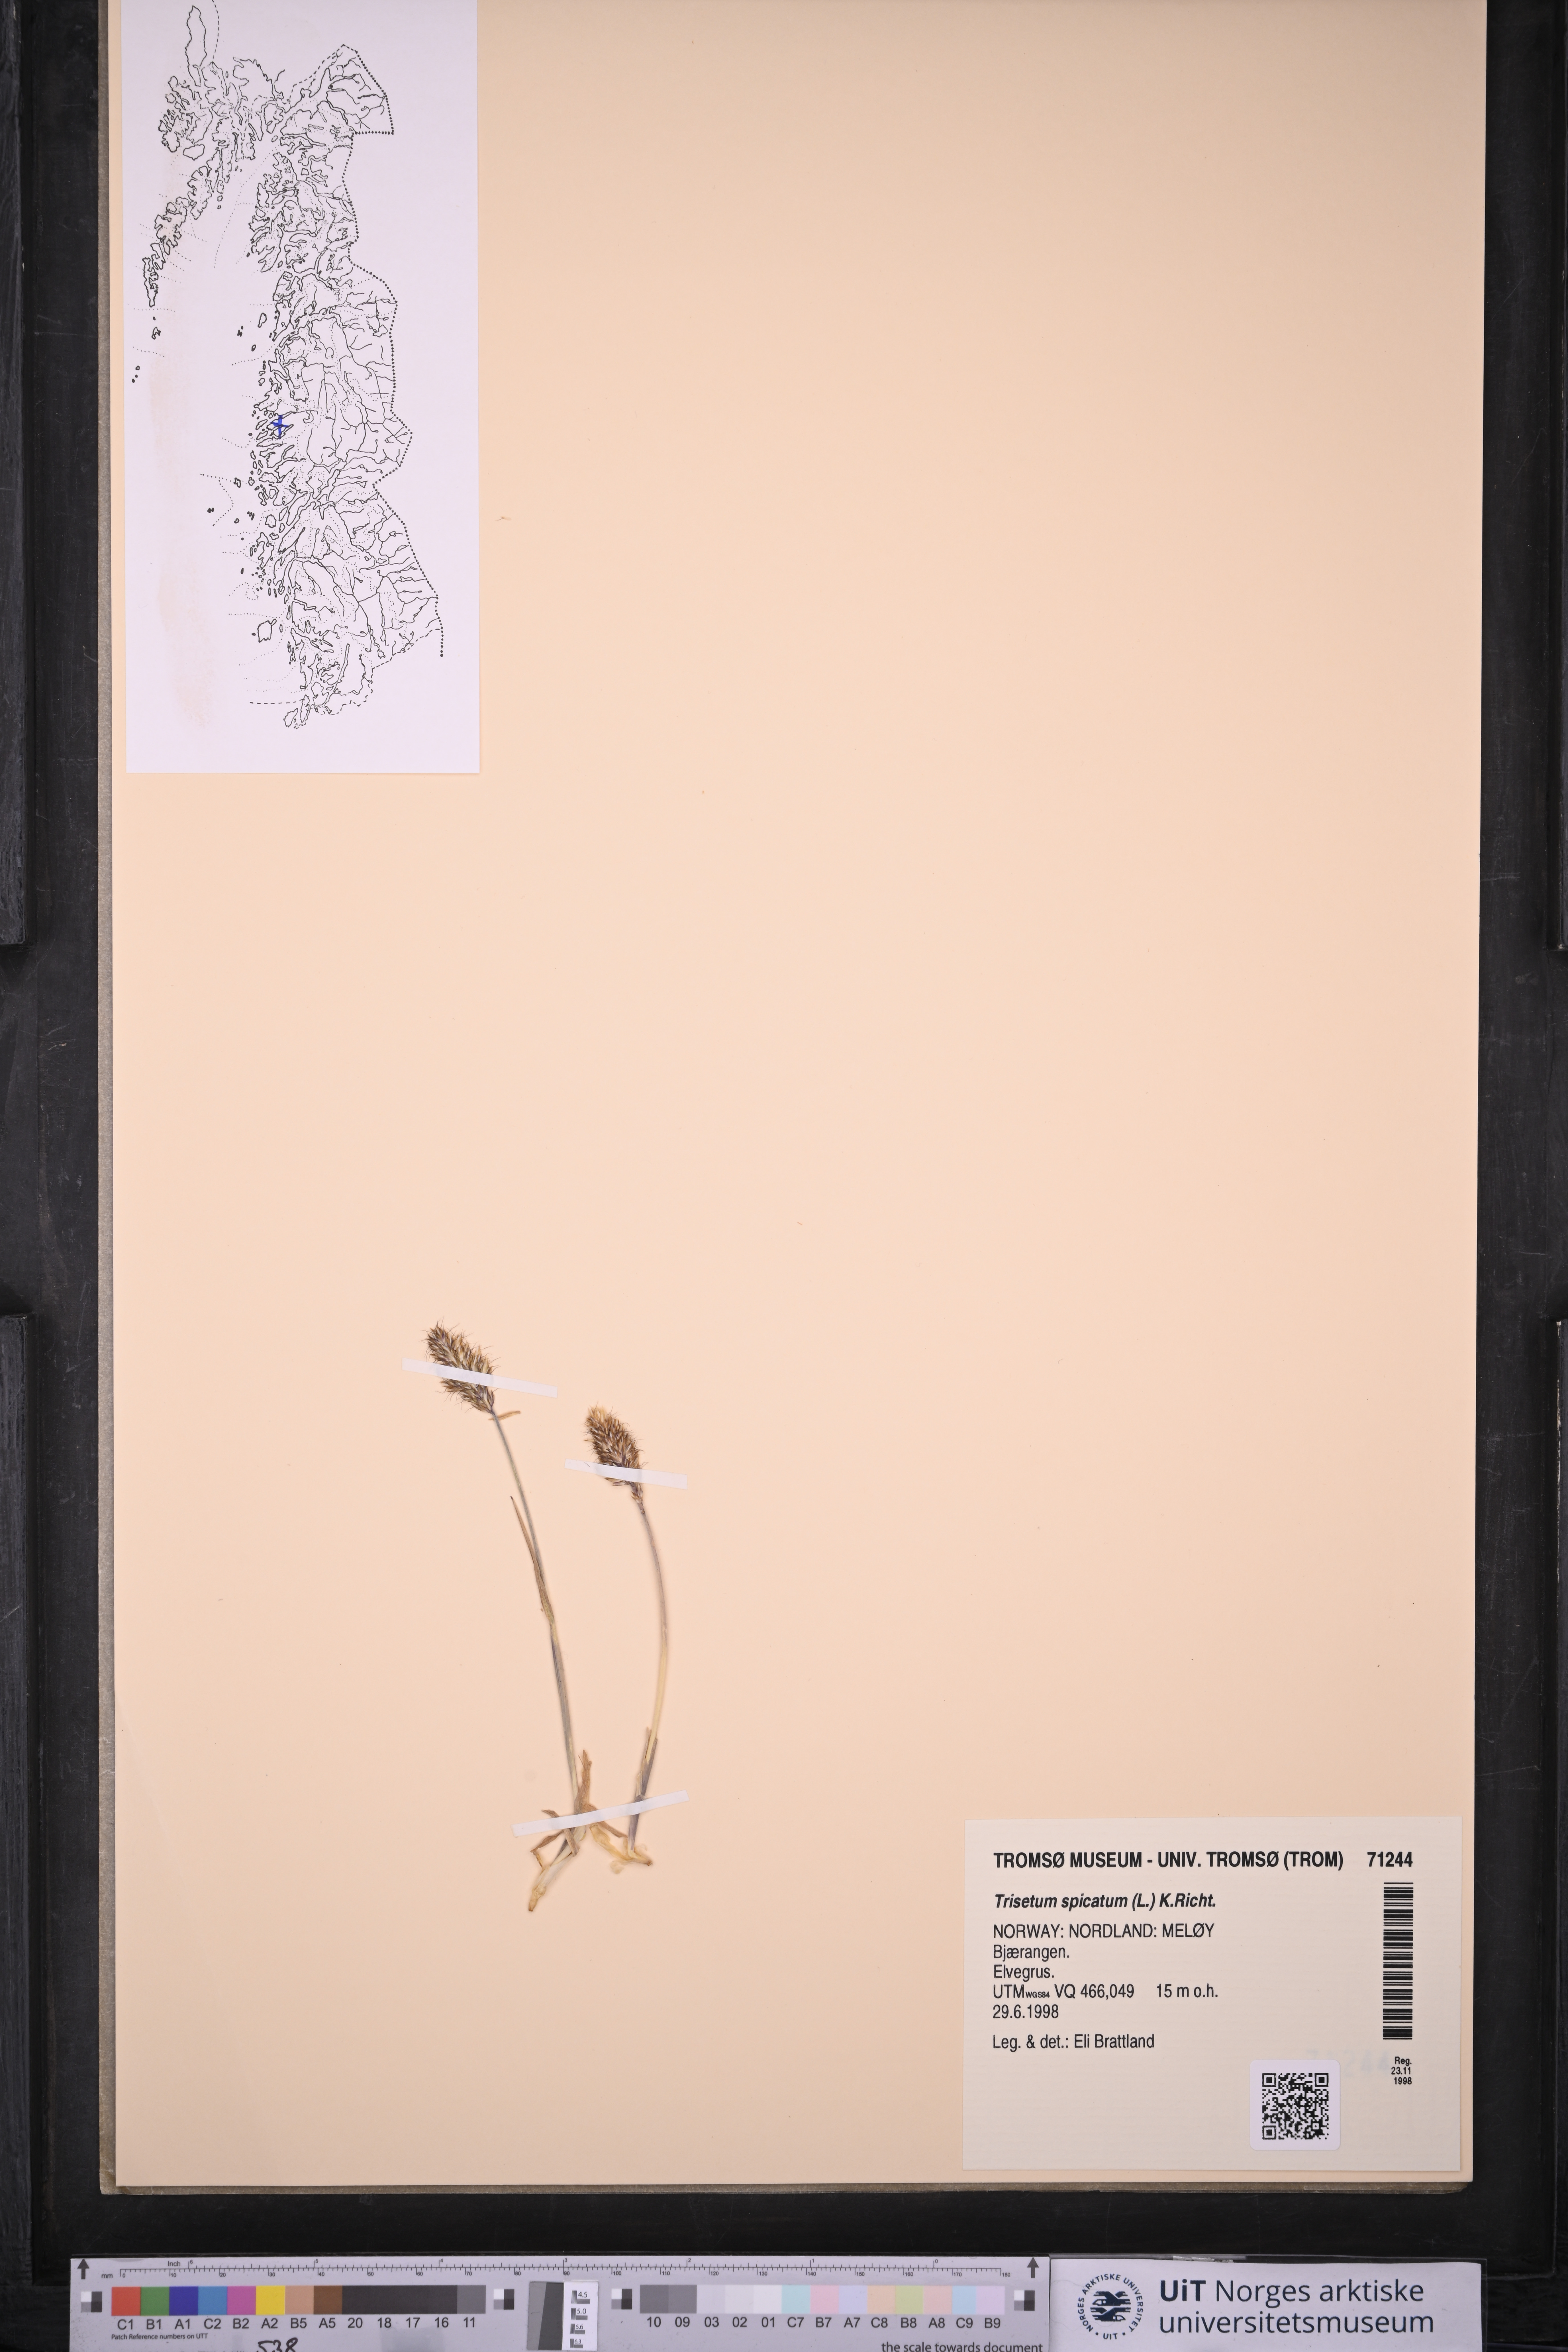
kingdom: Plantae
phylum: Tracheophyta
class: Liliopsida
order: Poales
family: Poaceae
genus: Koeleria
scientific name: Koeleria spicata
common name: Mountain trisetum
